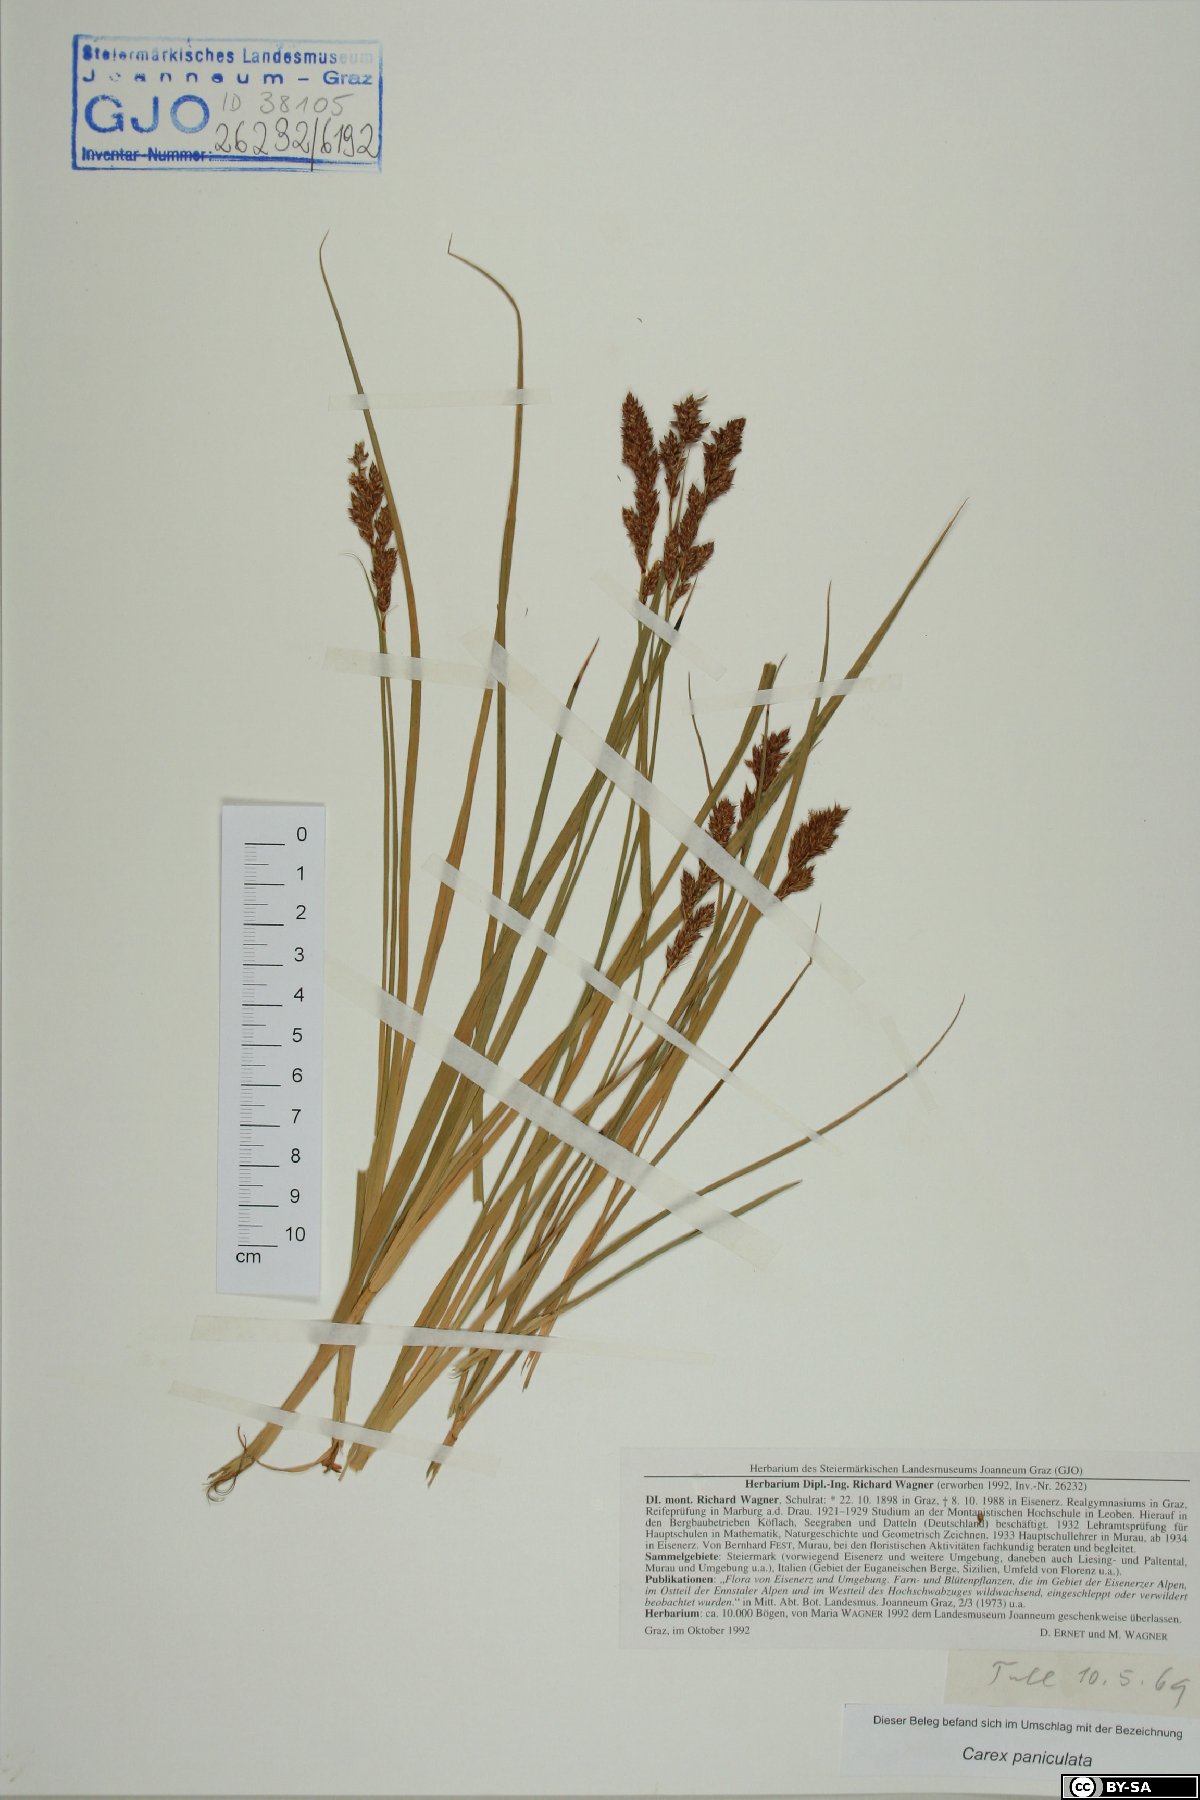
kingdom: Plantae
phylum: Tracheophyta
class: Liliopsida
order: Poales
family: Cyperaceae
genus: Carex
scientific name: Carex paniculata
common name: Greater tussock-sedge
